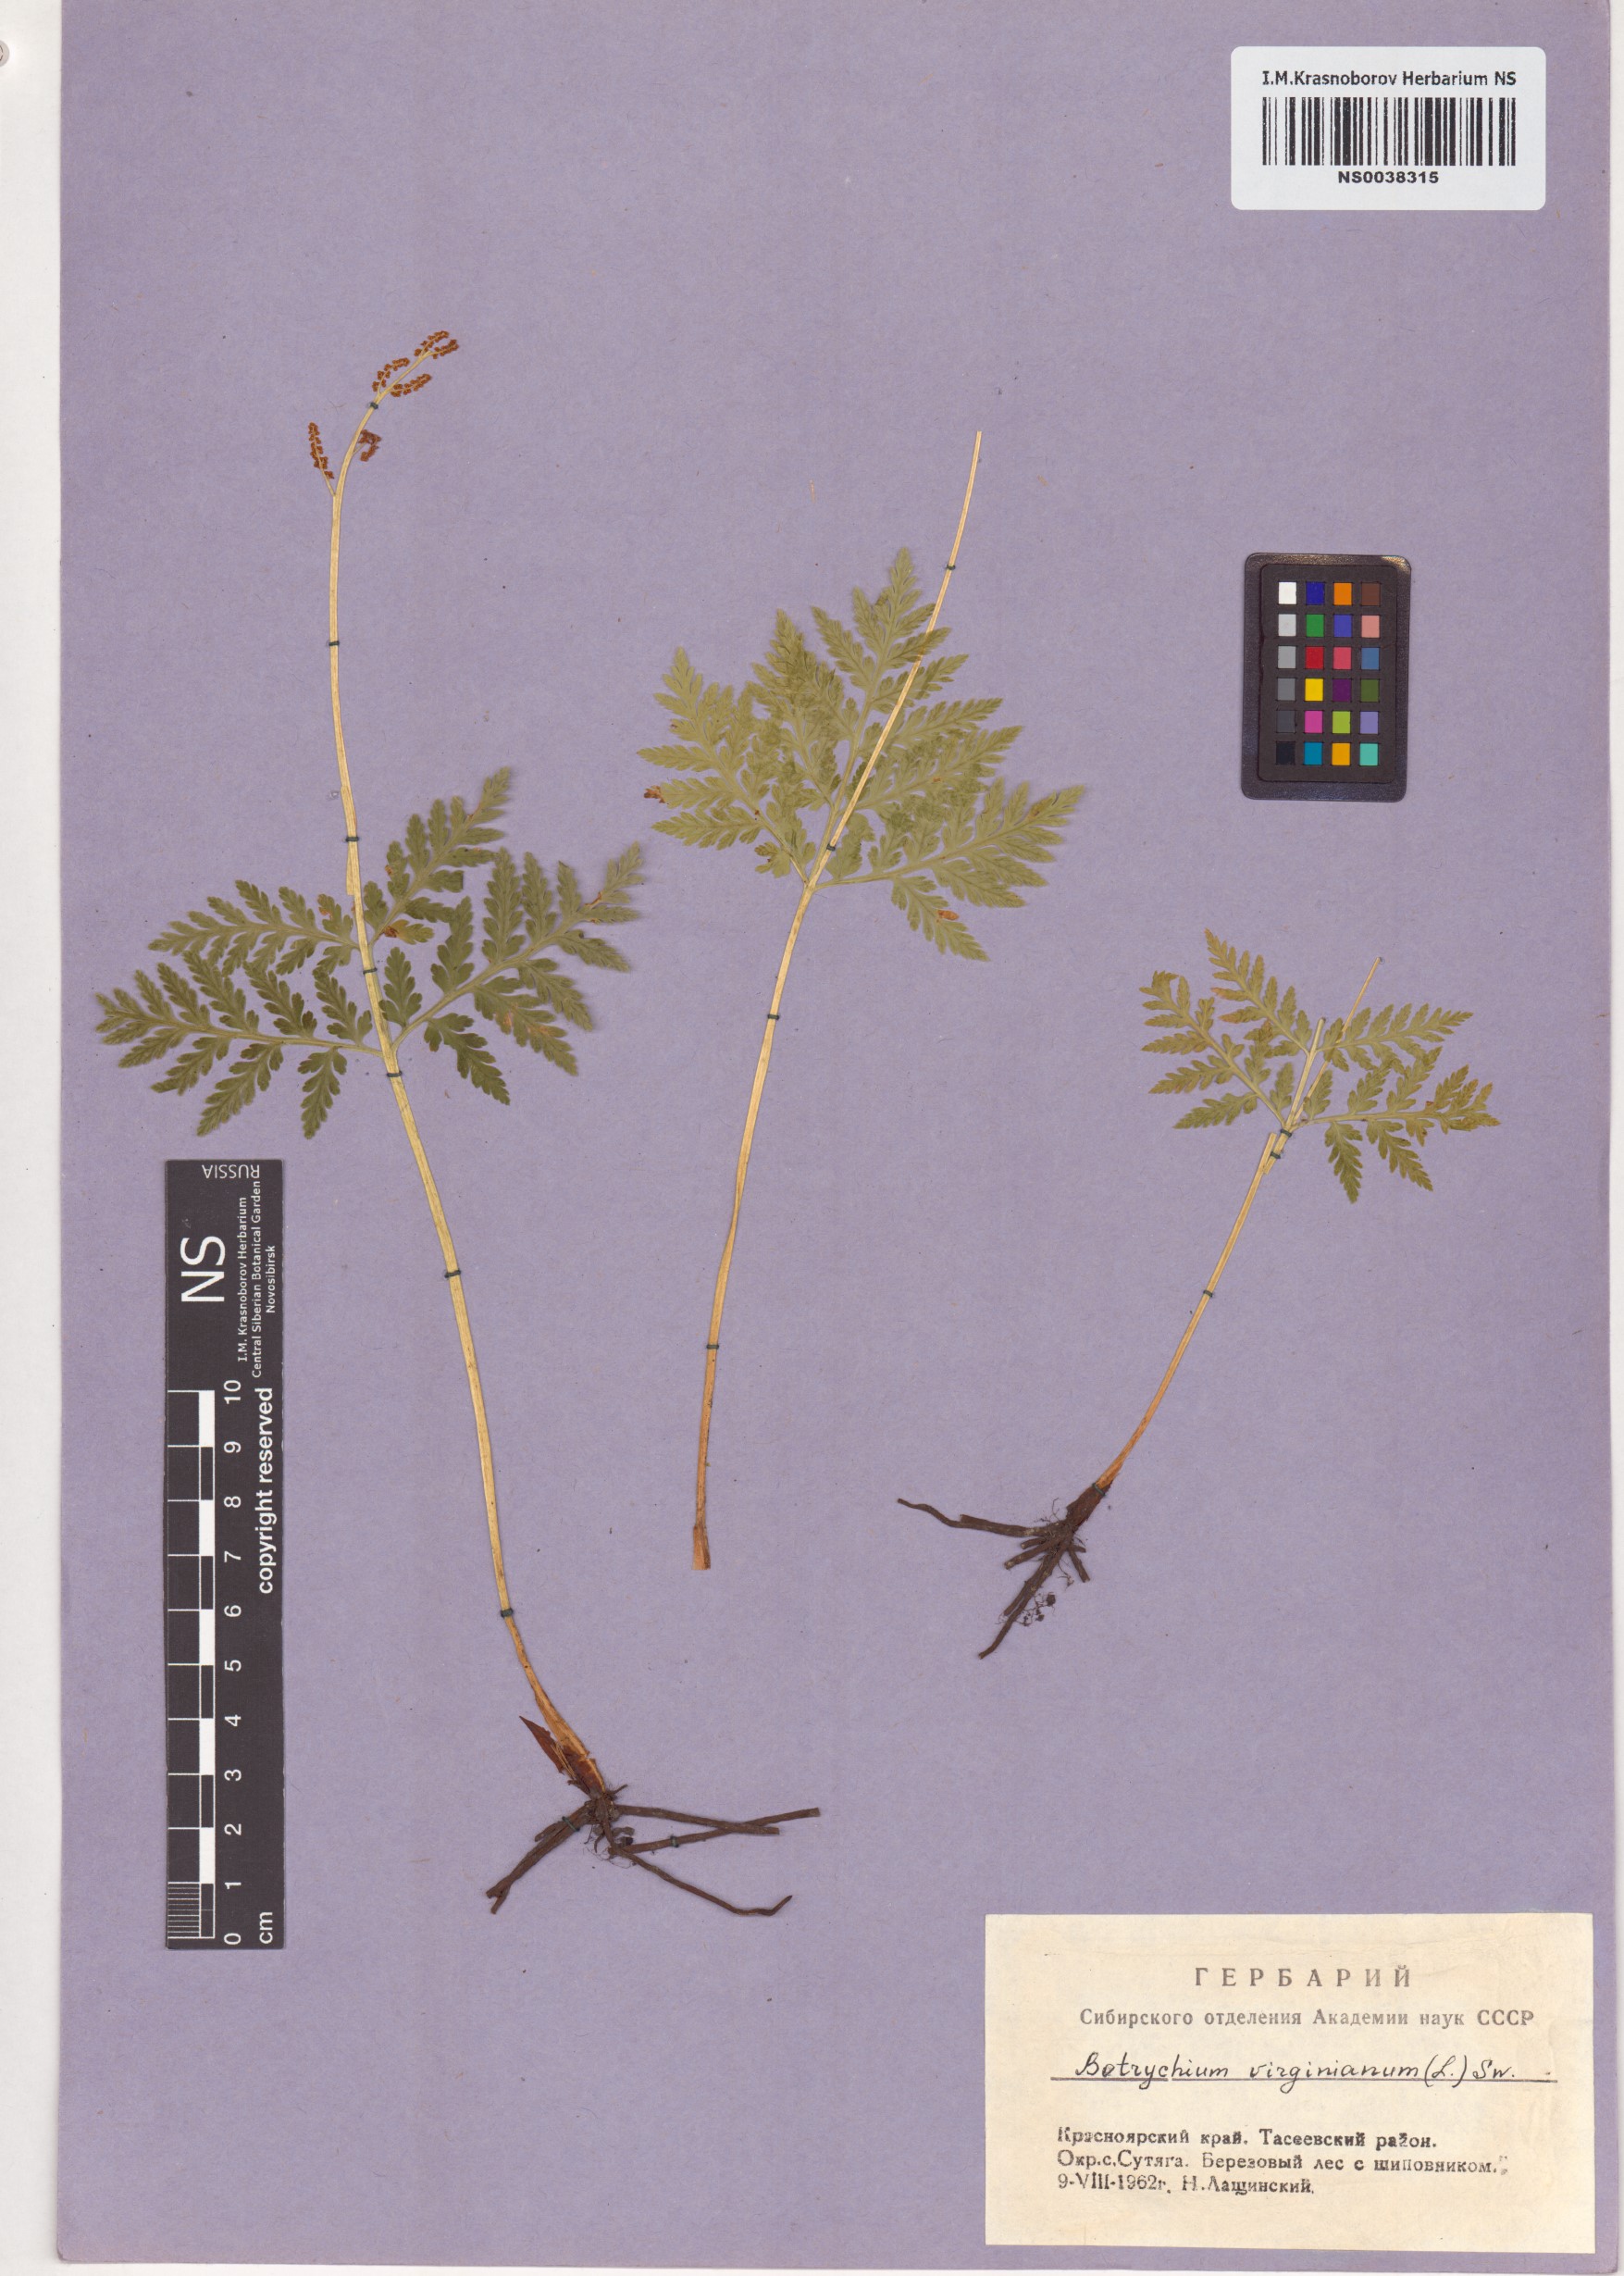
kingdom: Plantae
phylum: Tracheophyta
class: Polypodiopsida
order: Ophioglossales
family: Ophioglossaceae
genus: Botrypus
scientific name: Botrypus virginianus
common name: Common grapefern
